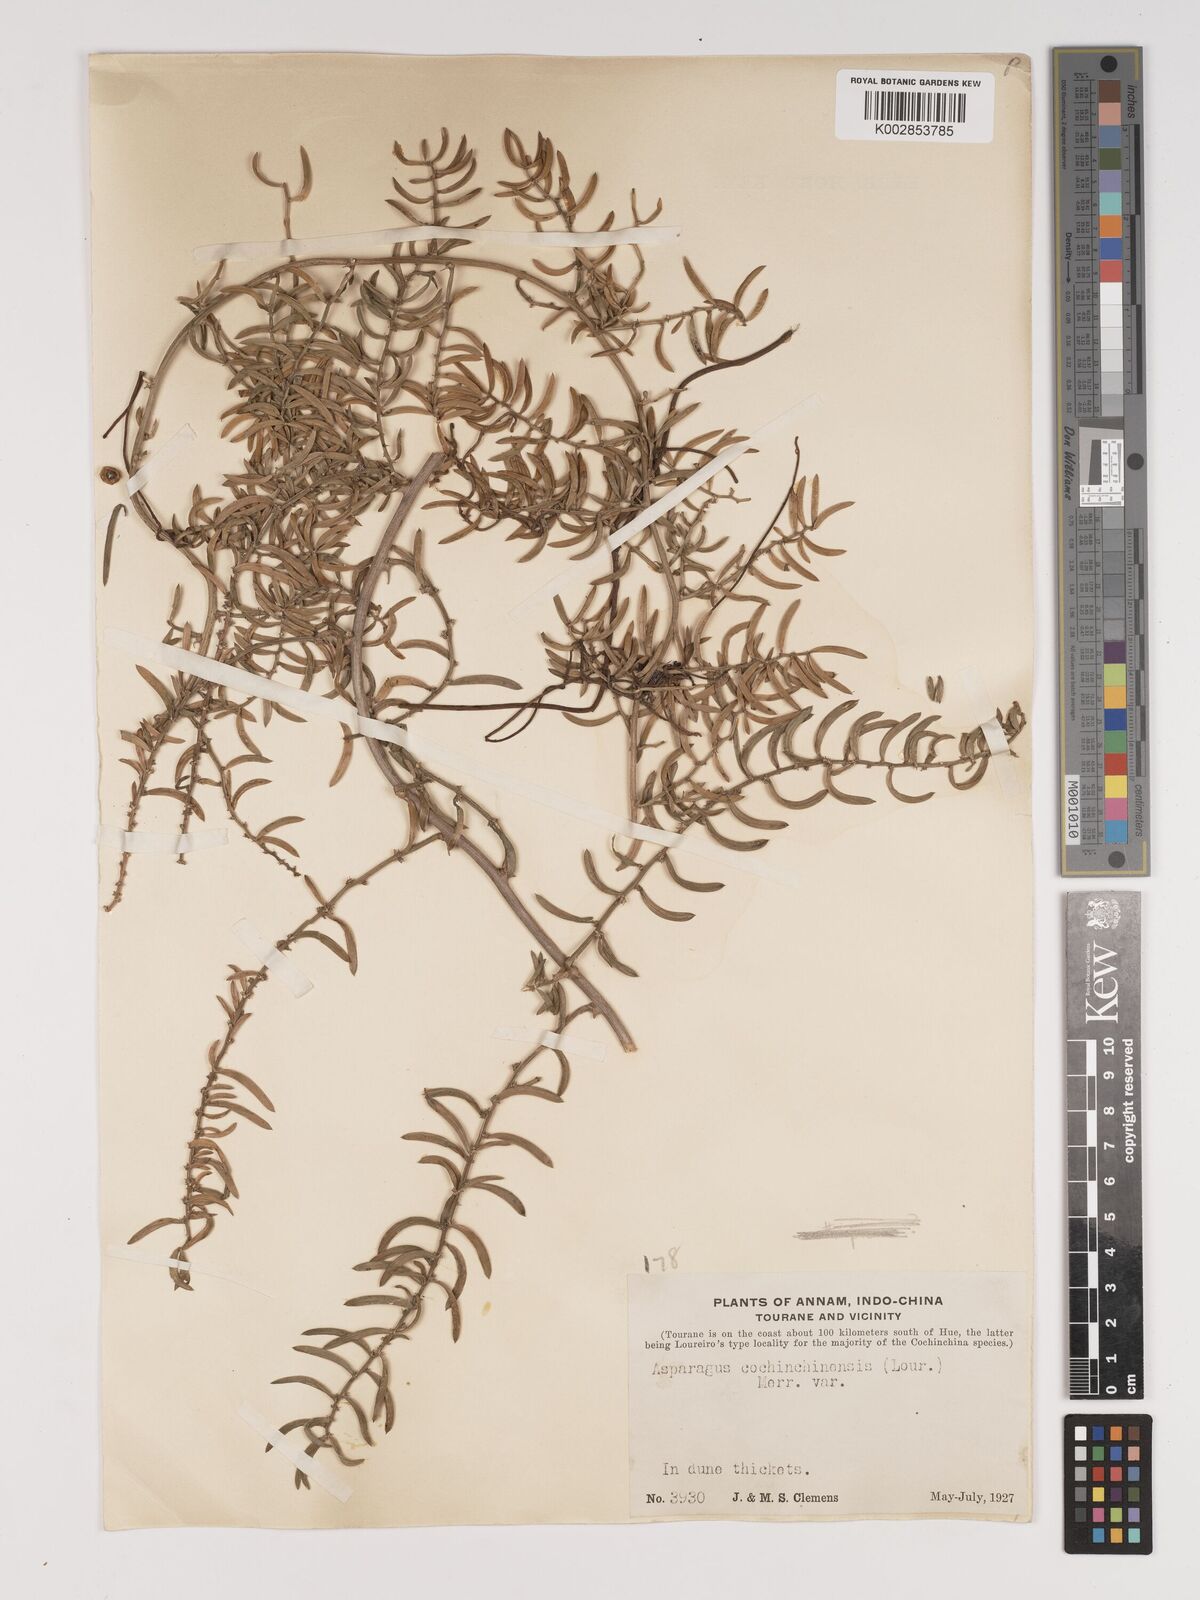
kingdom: Plantae
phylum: Tracheophyta
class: Liliopsida
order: Asparagales
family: Asparagaceae
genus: Asparagus
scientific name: Asparagus cochinchinensis
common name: Chinese asparagus
